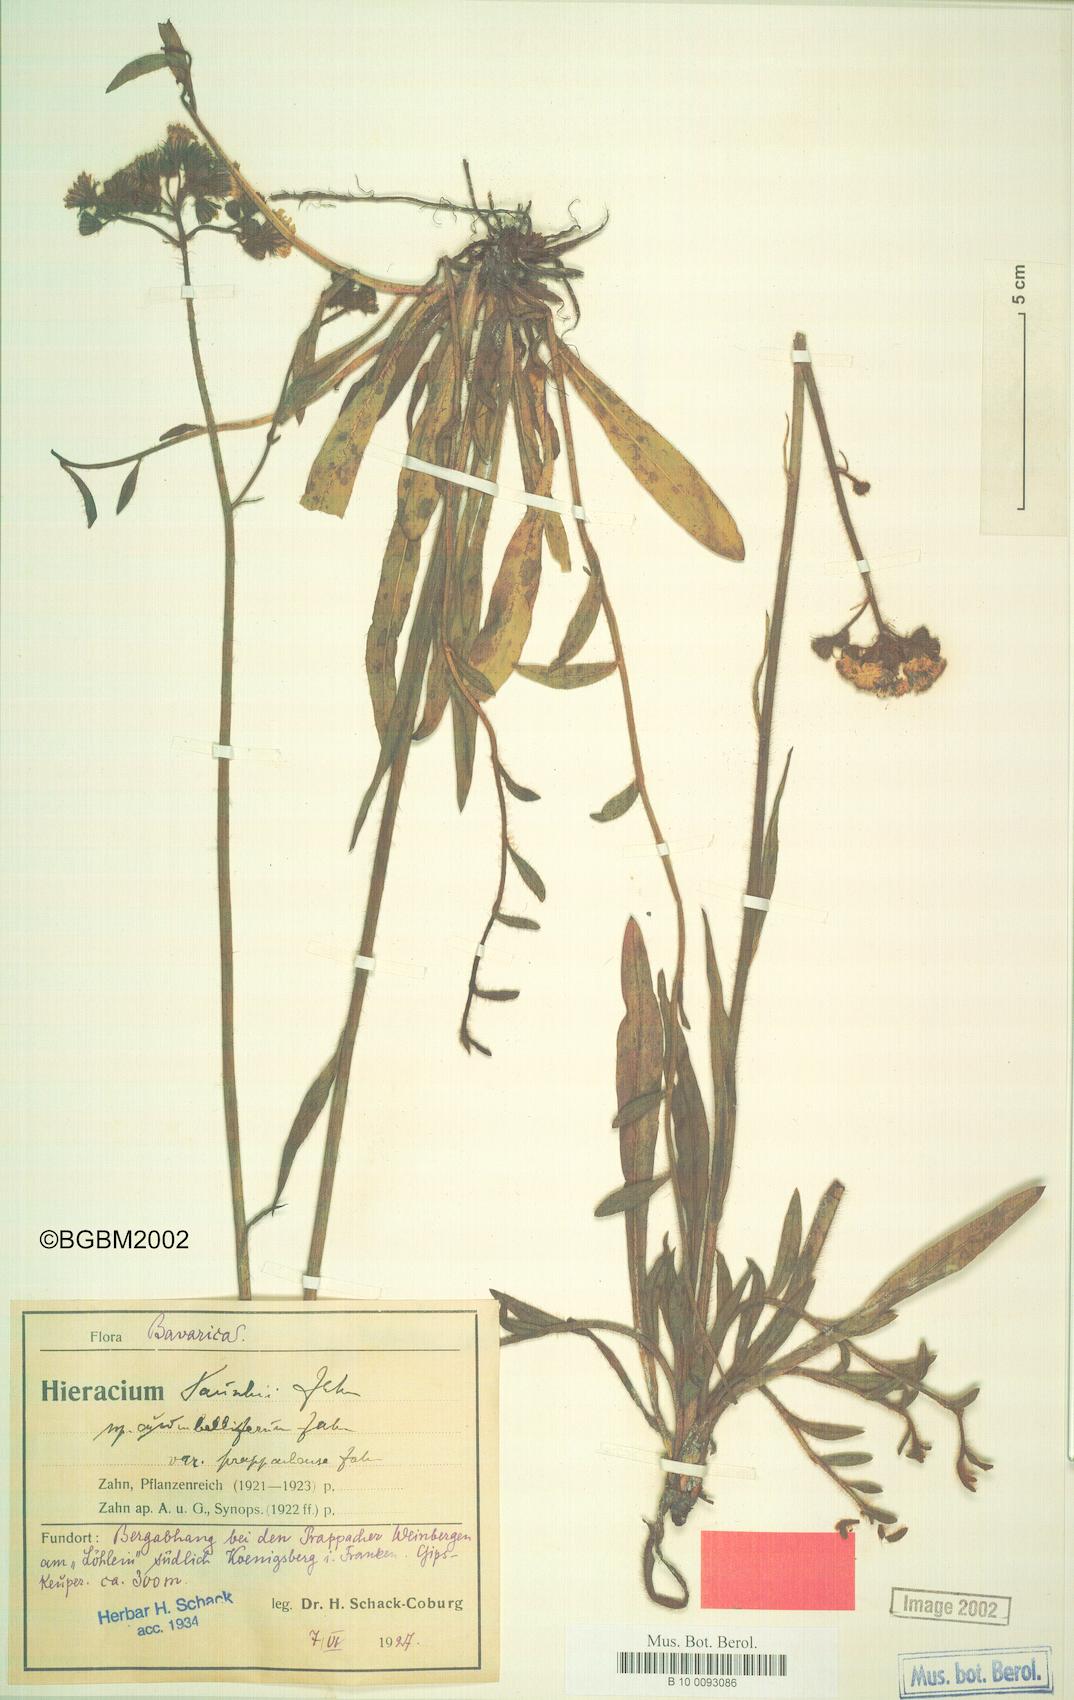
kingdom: Plantae
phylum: Tracheophyta
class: Magnoliopsida
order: Asterales
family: Asteraceae
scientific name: Asteraceae
